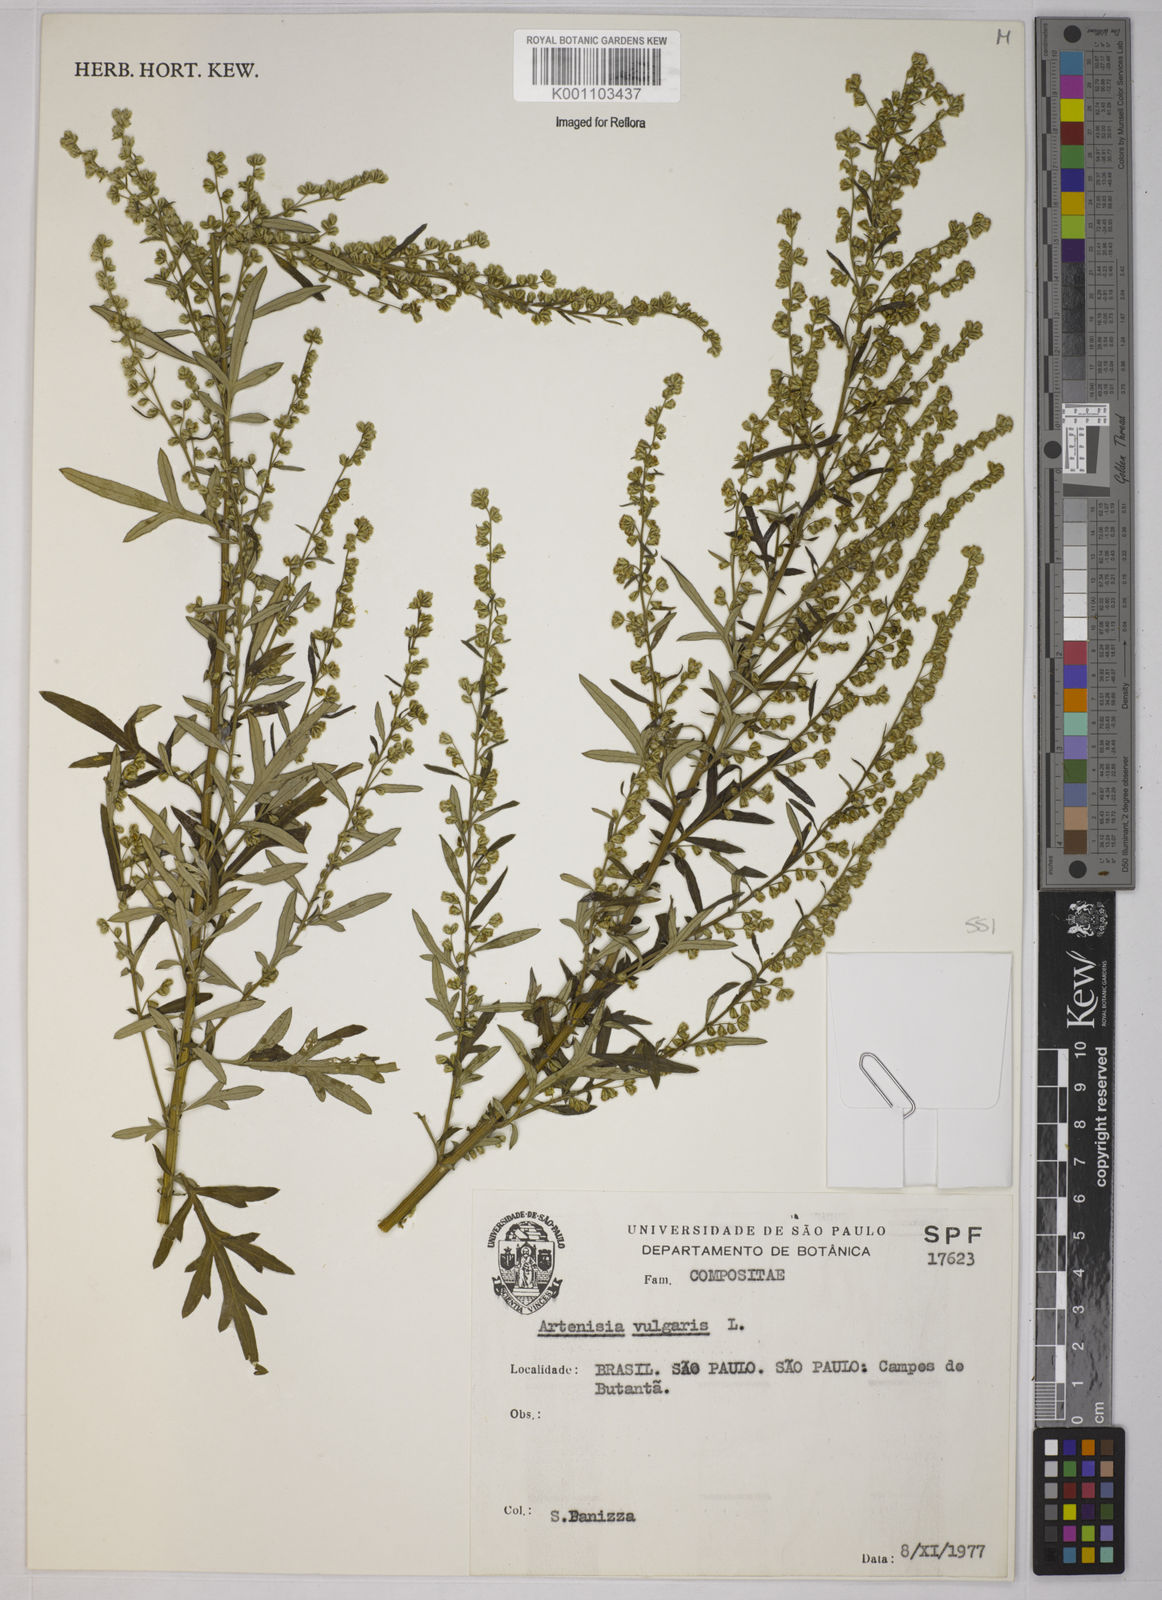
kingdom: Plantae
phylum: Tracheophyta
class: Magnoliopsida
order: Asterales
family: Asteraceae
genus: Artemisia
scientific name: Artemisia vulgaris
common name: Mugwort
